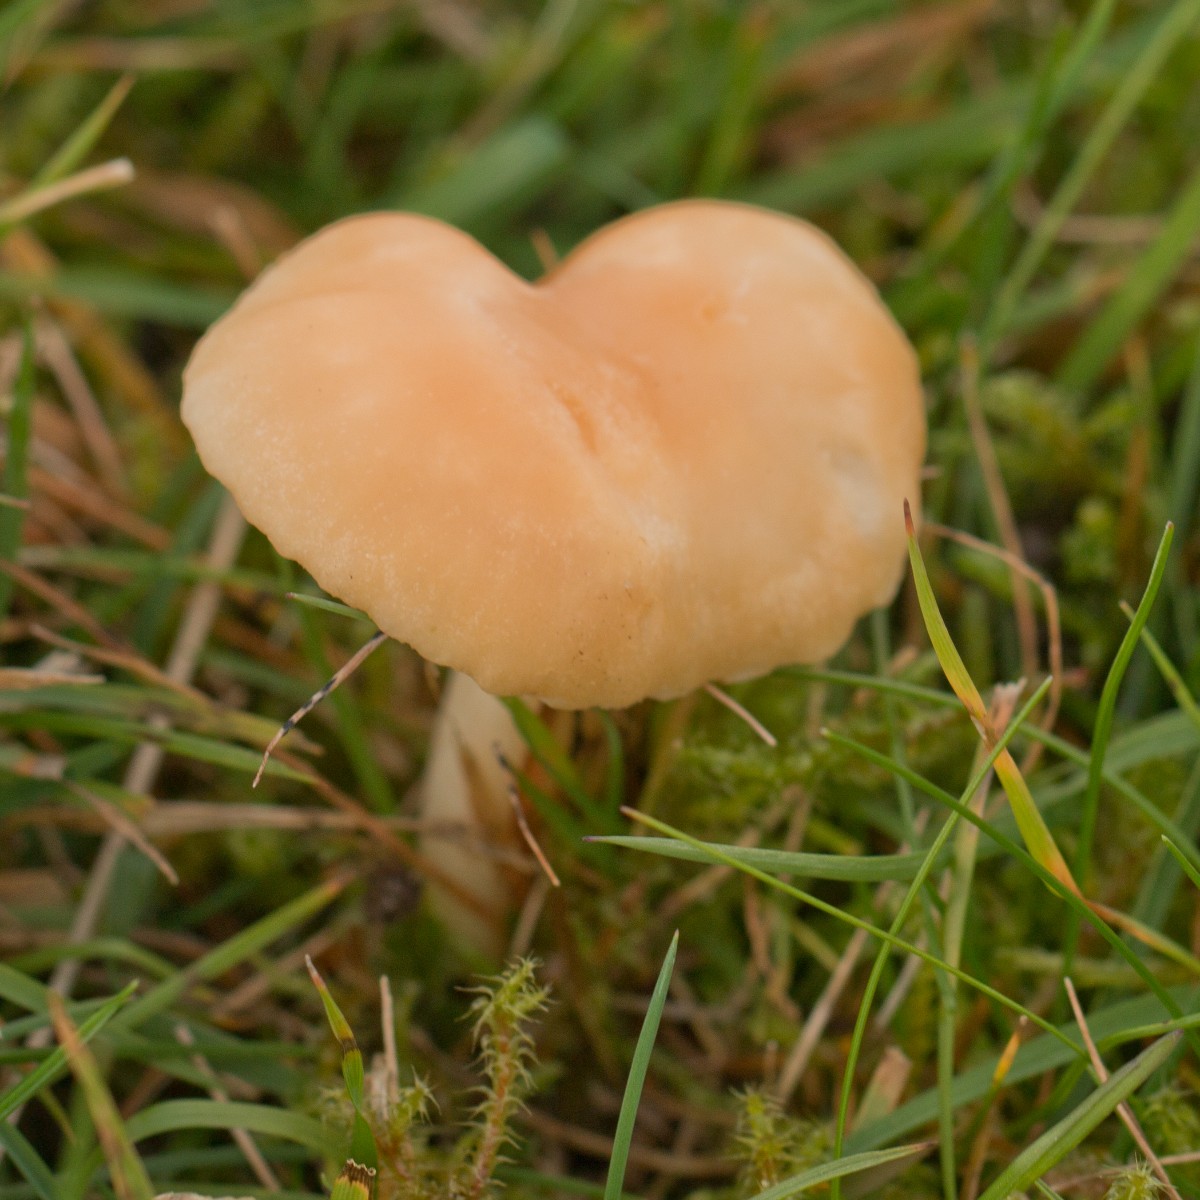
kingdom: Fungi
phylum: Basidiomycota
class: Agaricomycetes
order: Agaricales
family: Hygrophoraceae
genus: Cuphophyllus
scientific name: Cuphophyllus pratensis
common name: eng-vokshat
